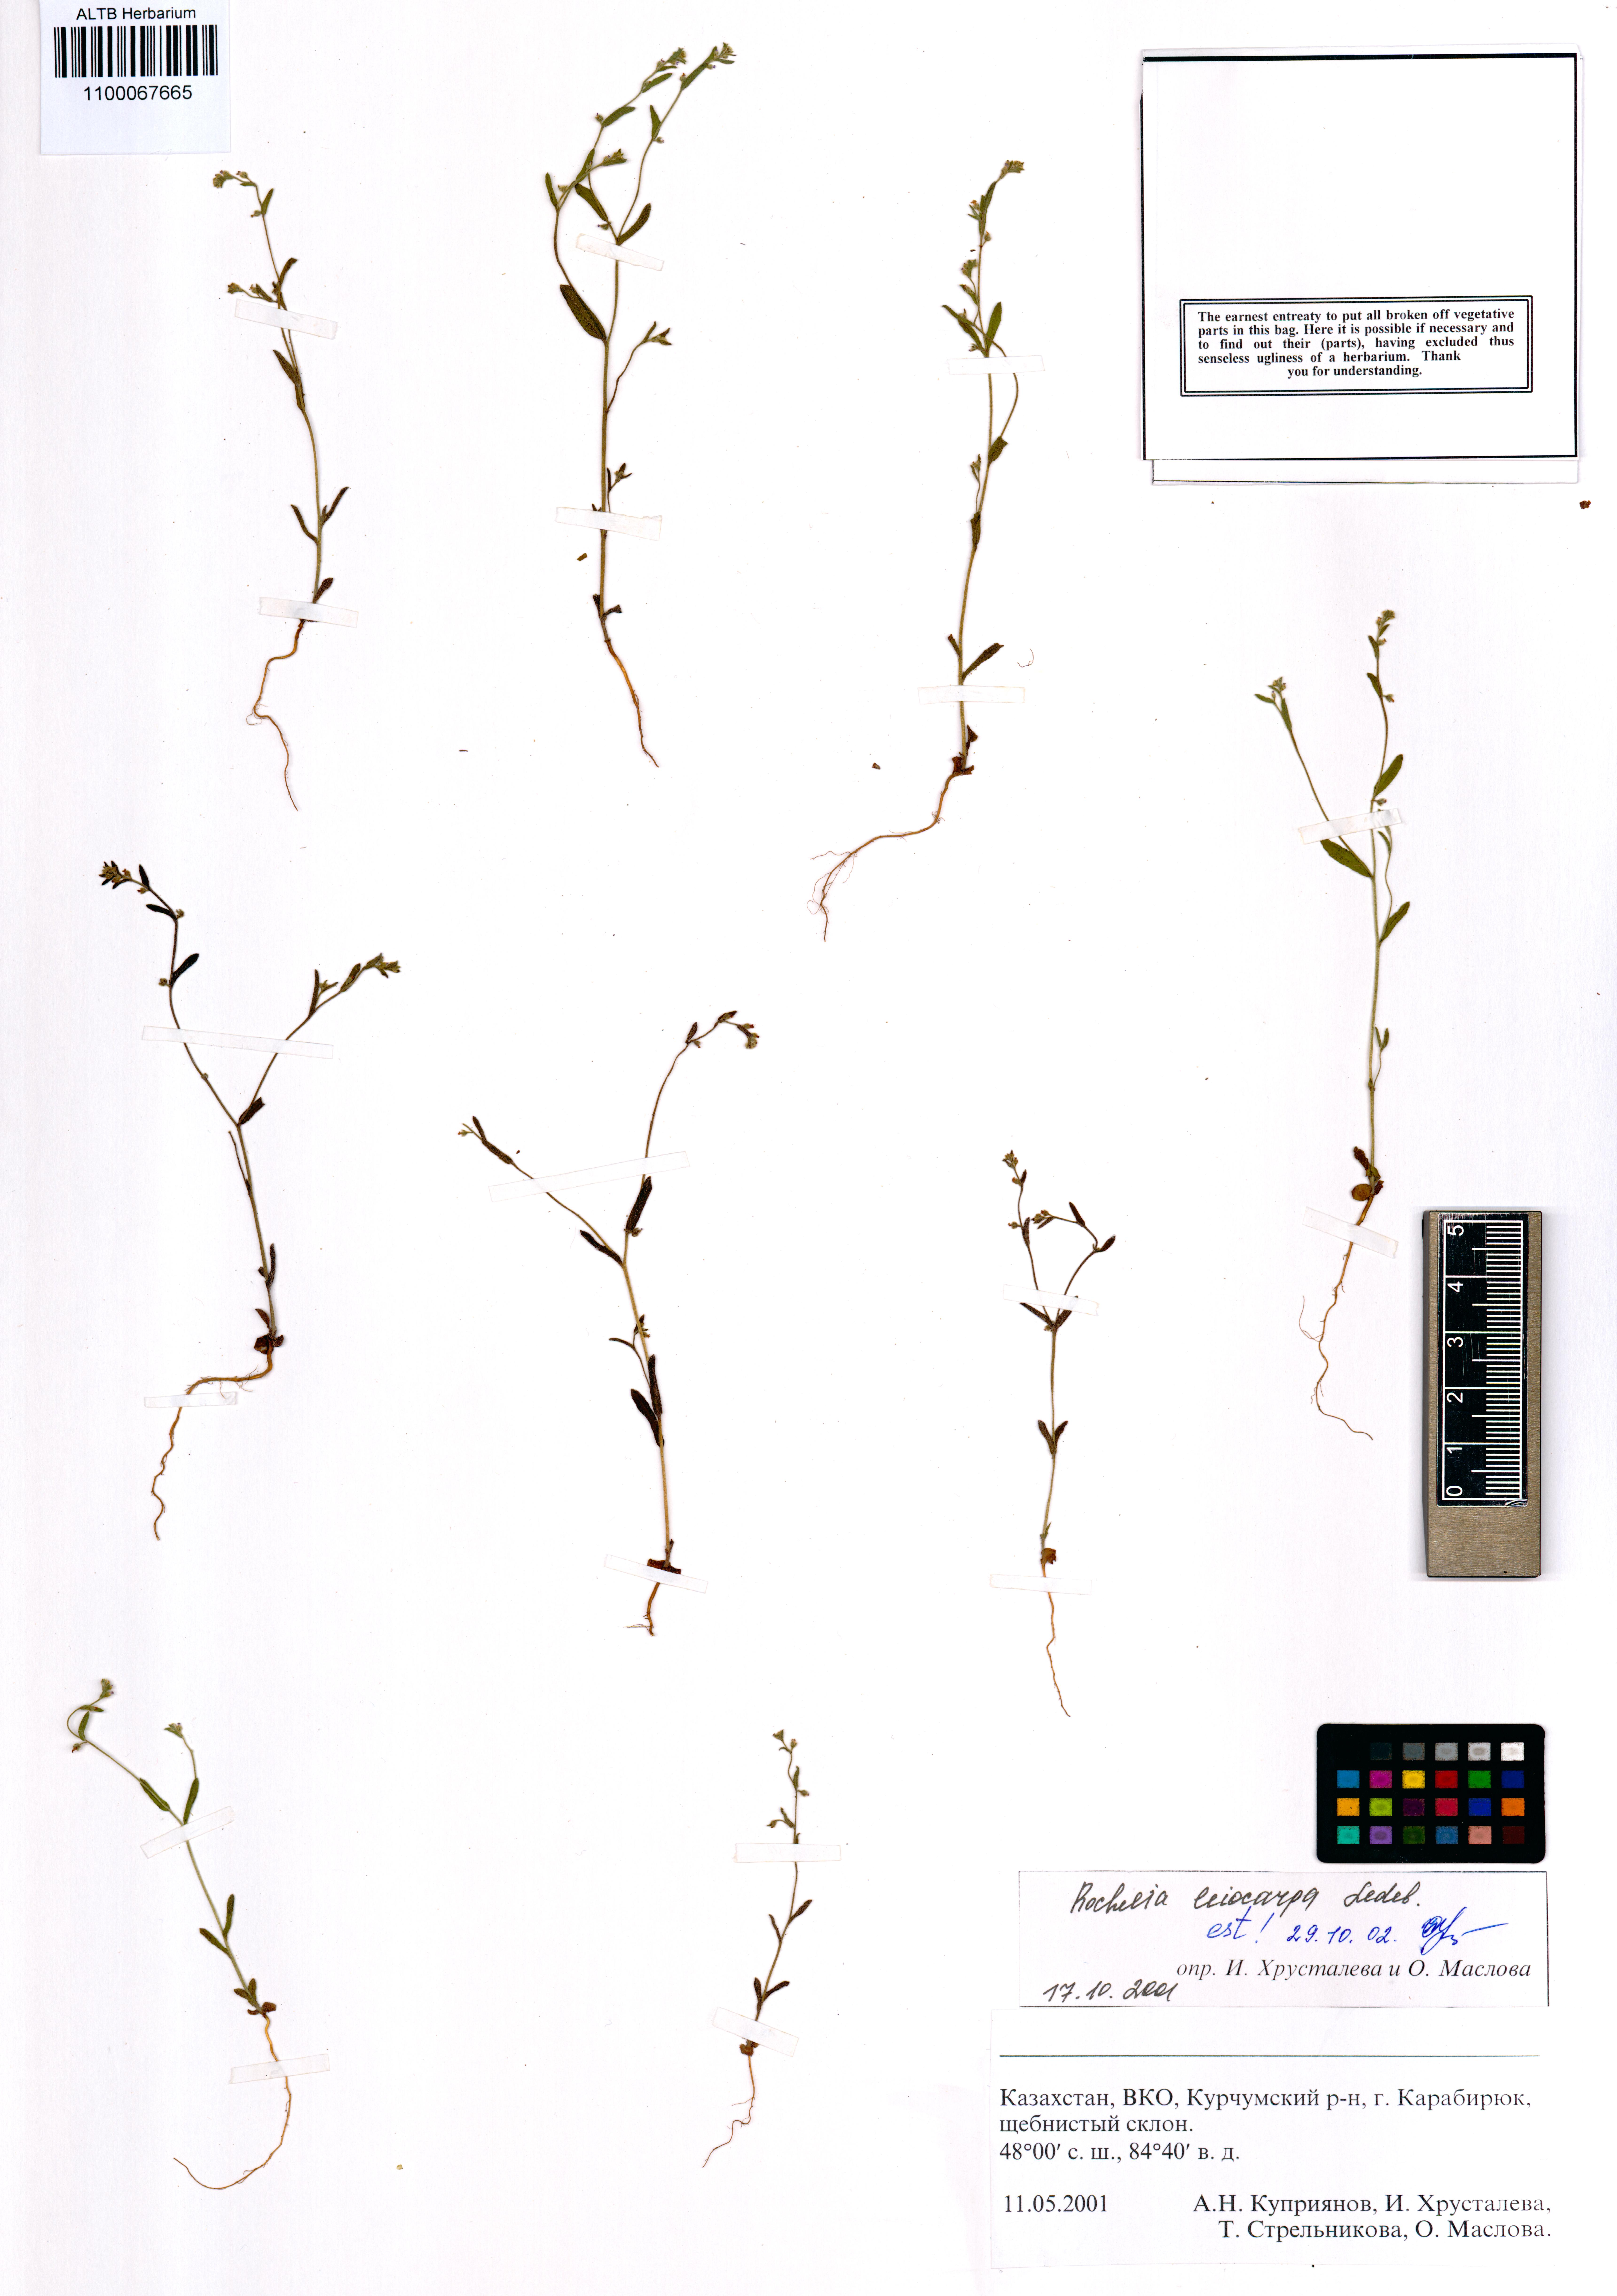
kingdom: Plantae
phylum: Tracheophyta
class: Magnoliopsida
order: Boraginales
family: Boraginaceae
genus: Rochelia
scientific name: Rochelia leiocarpa
